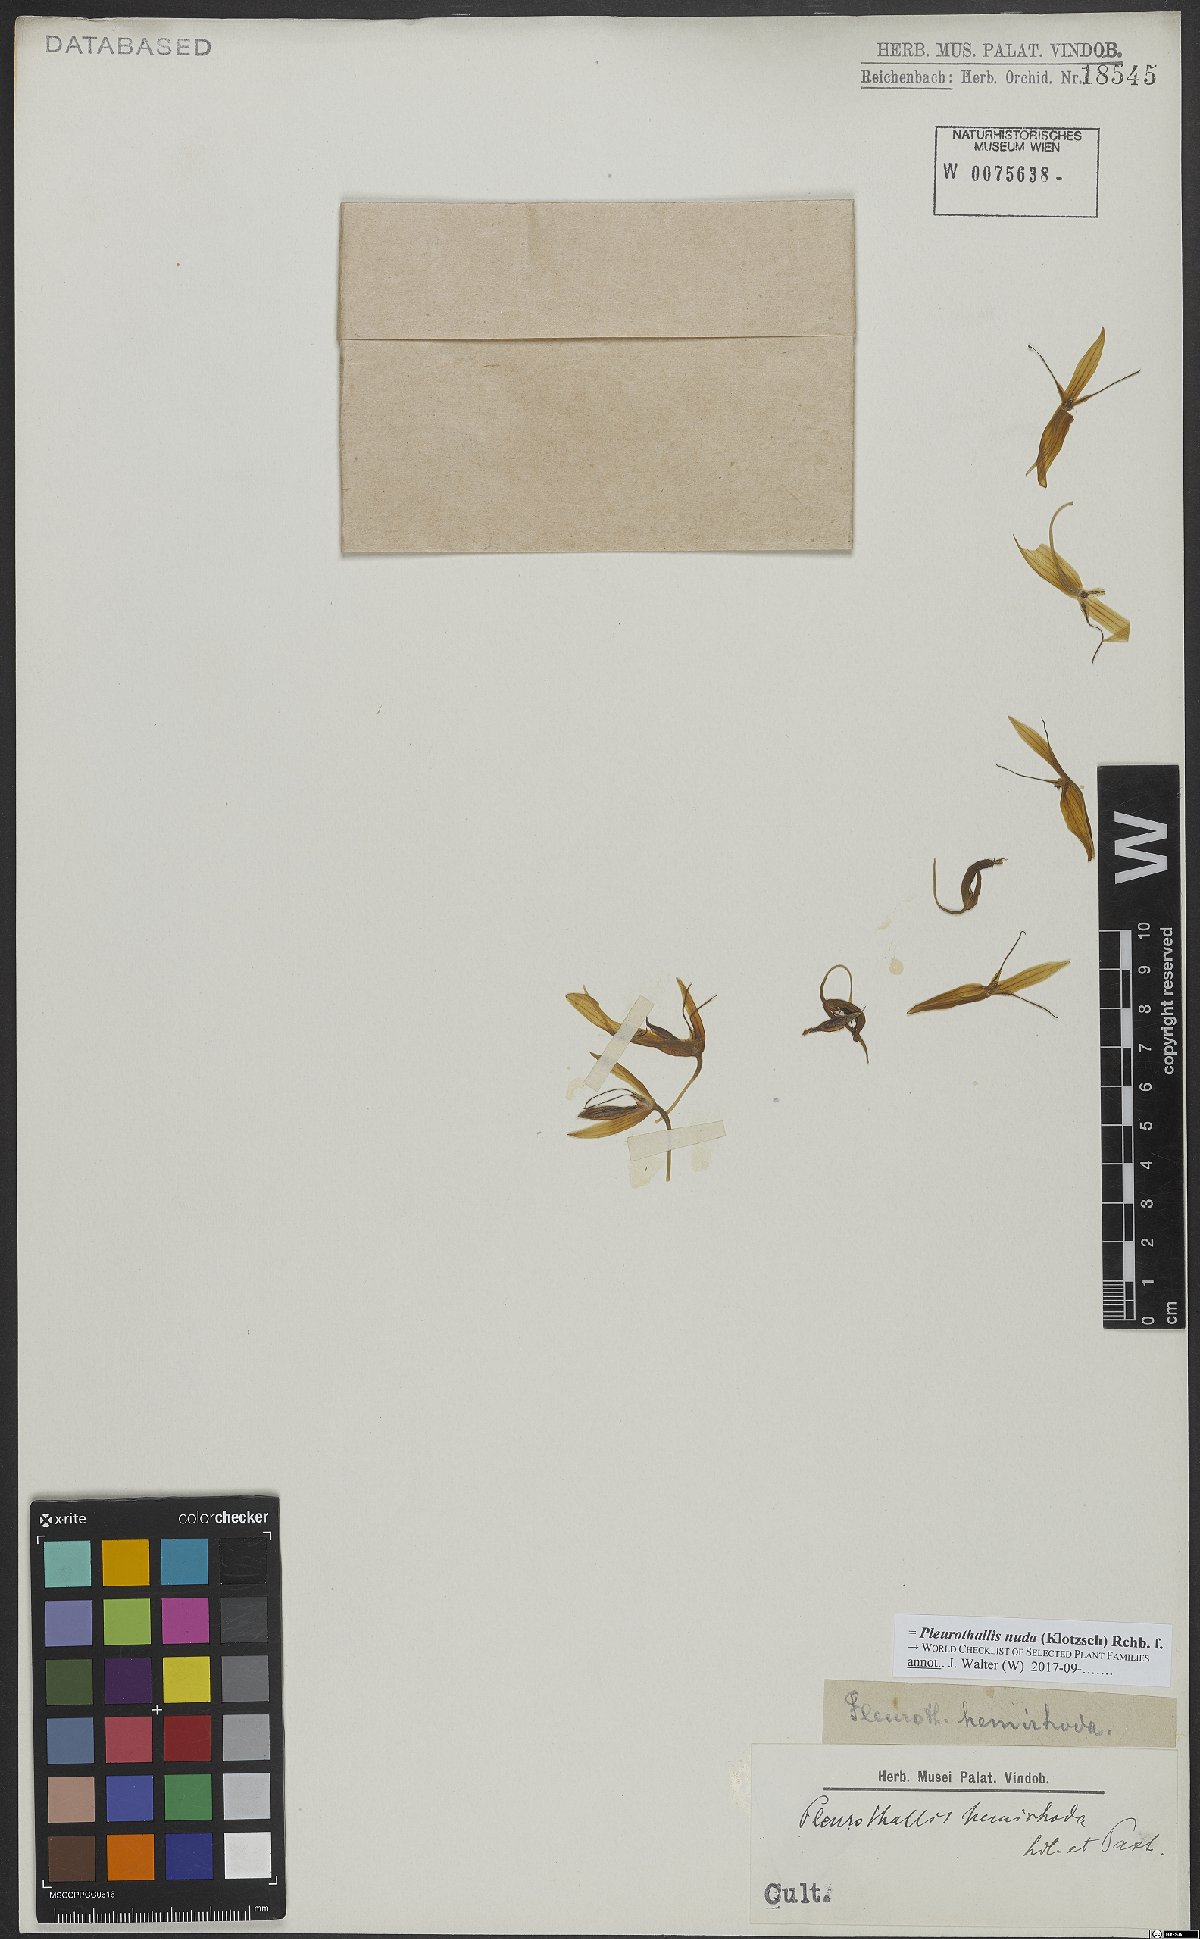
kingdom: Plantae
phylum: Tracheophyta
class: Liliopsida
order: Asparagales
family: Orchidaceae
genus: Pleurothallis
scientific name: Pleurothallis nuda
